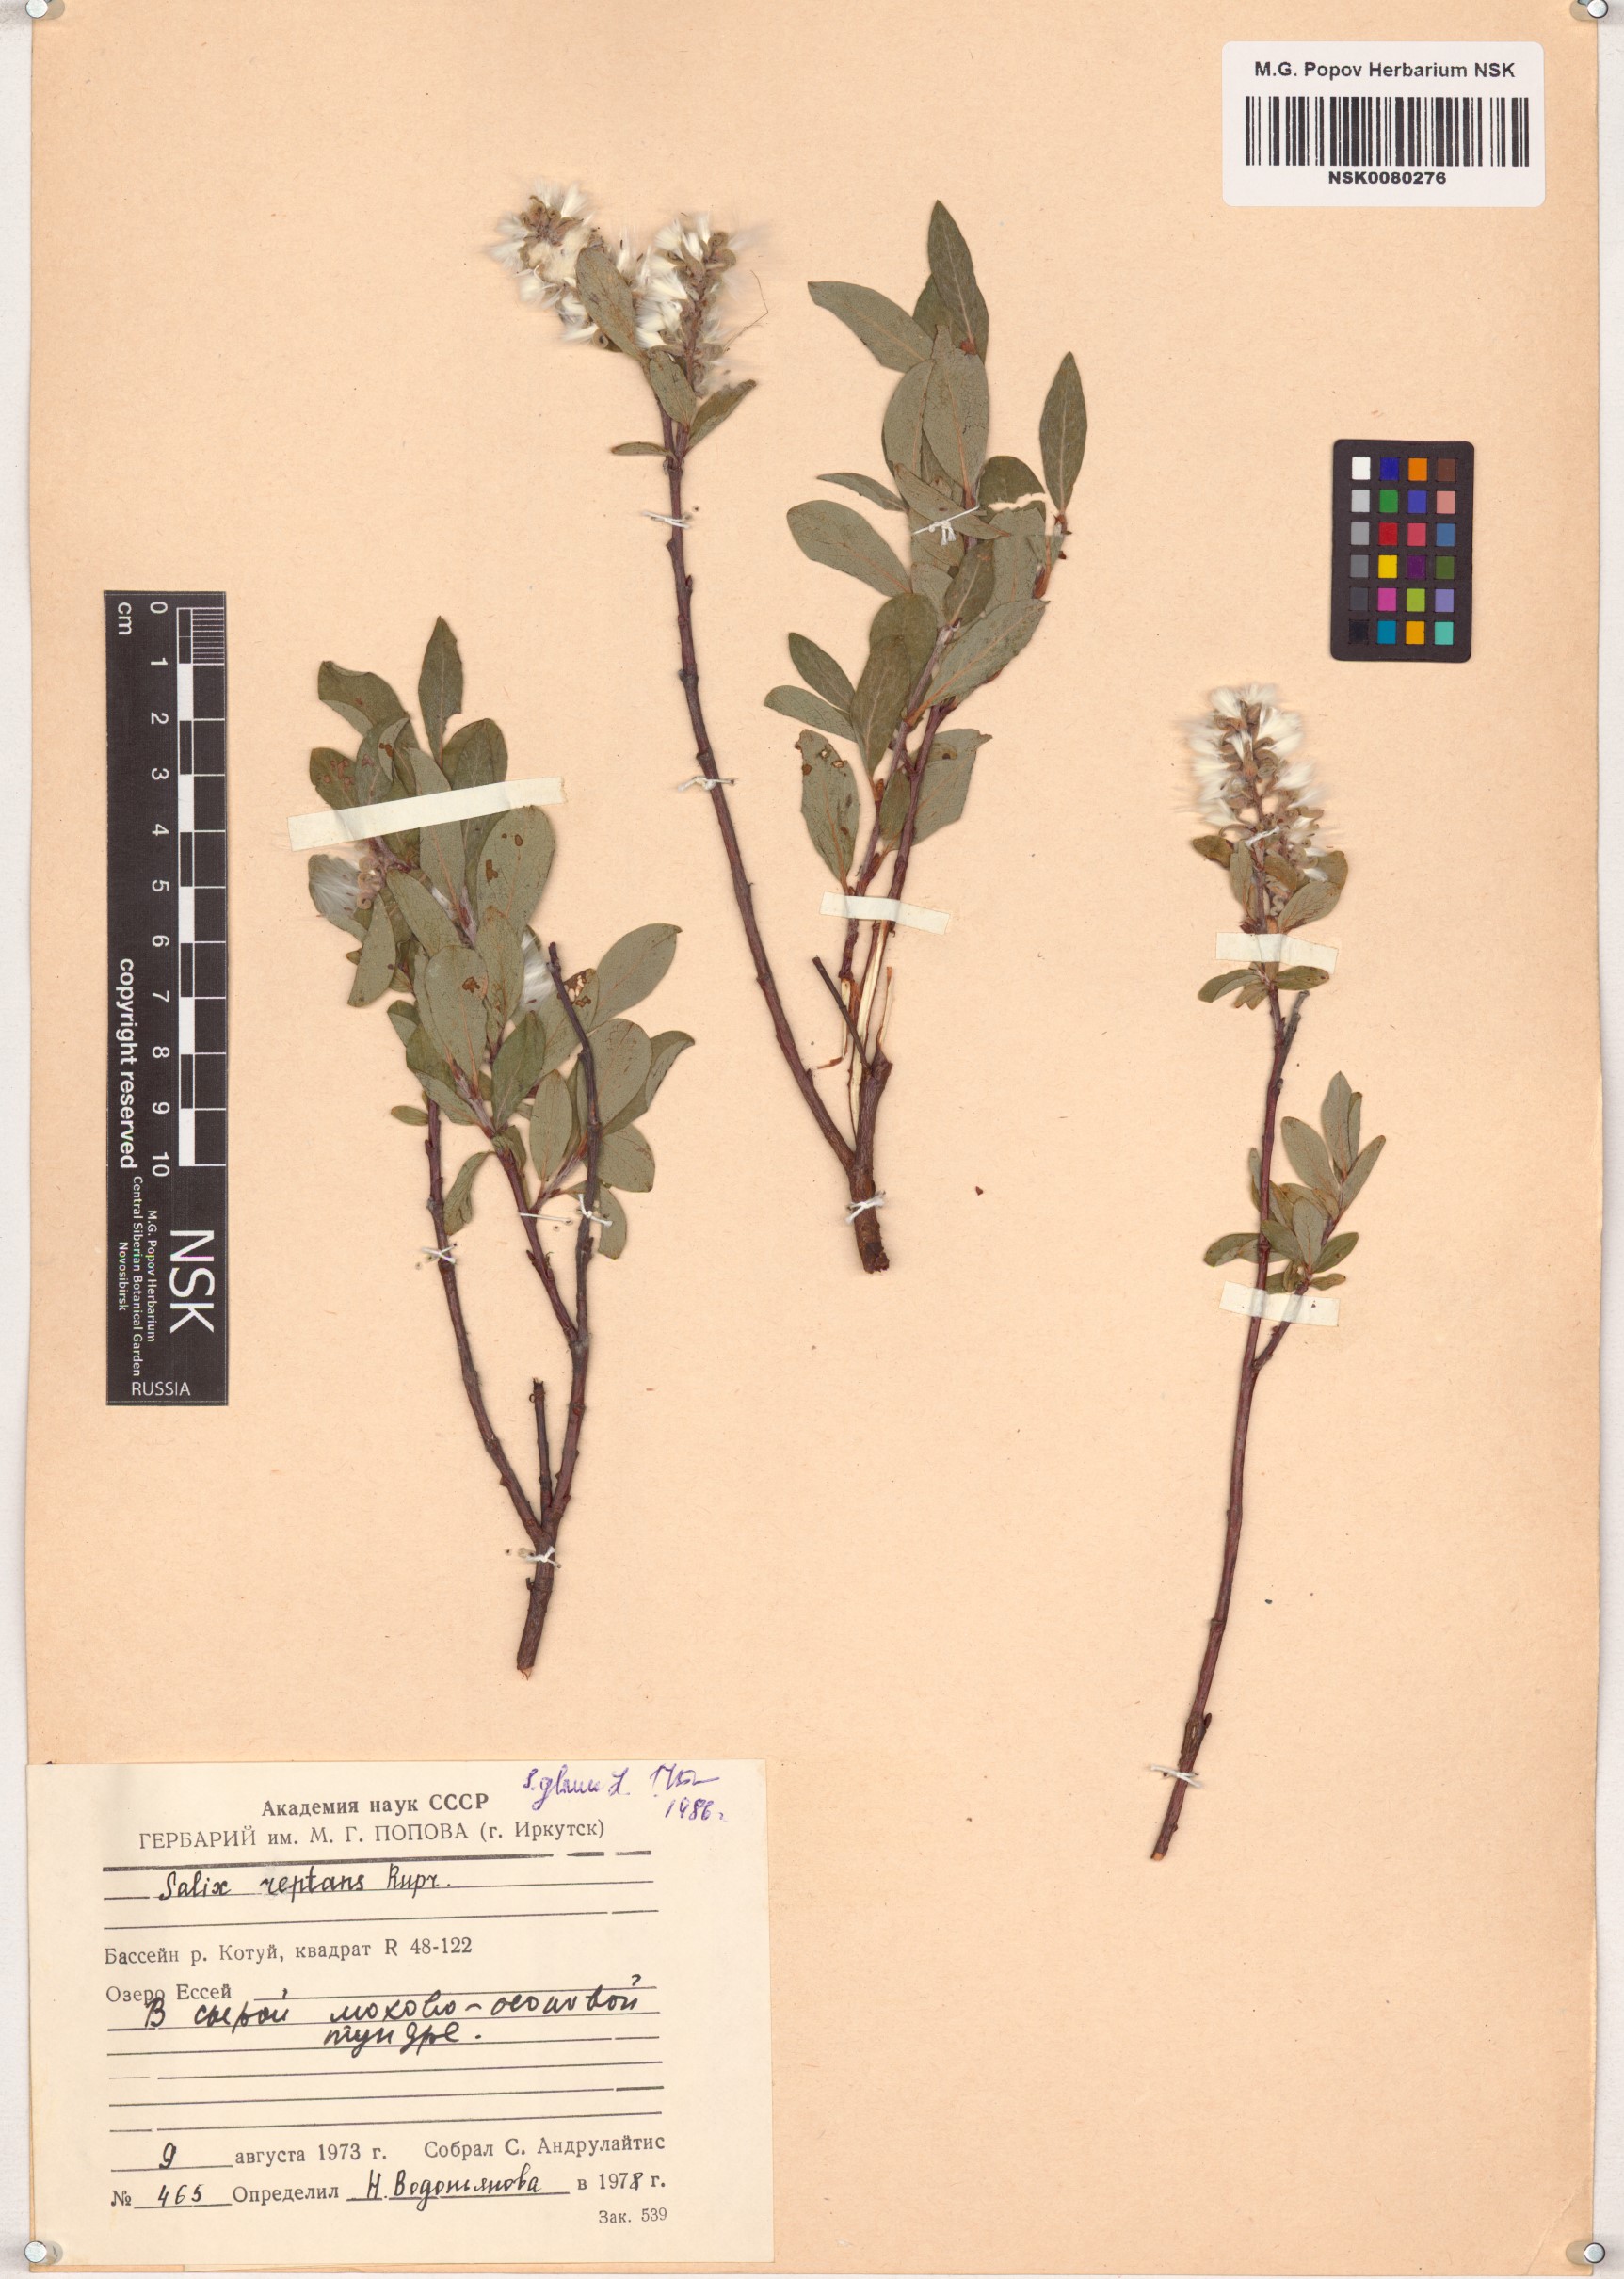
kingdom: Plantae
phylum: Tracheophyta
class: Magnoliopsida
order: Malpighiales
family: Salicaceae
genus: Salix
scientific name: Salix glauca
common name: Glaucous willow
